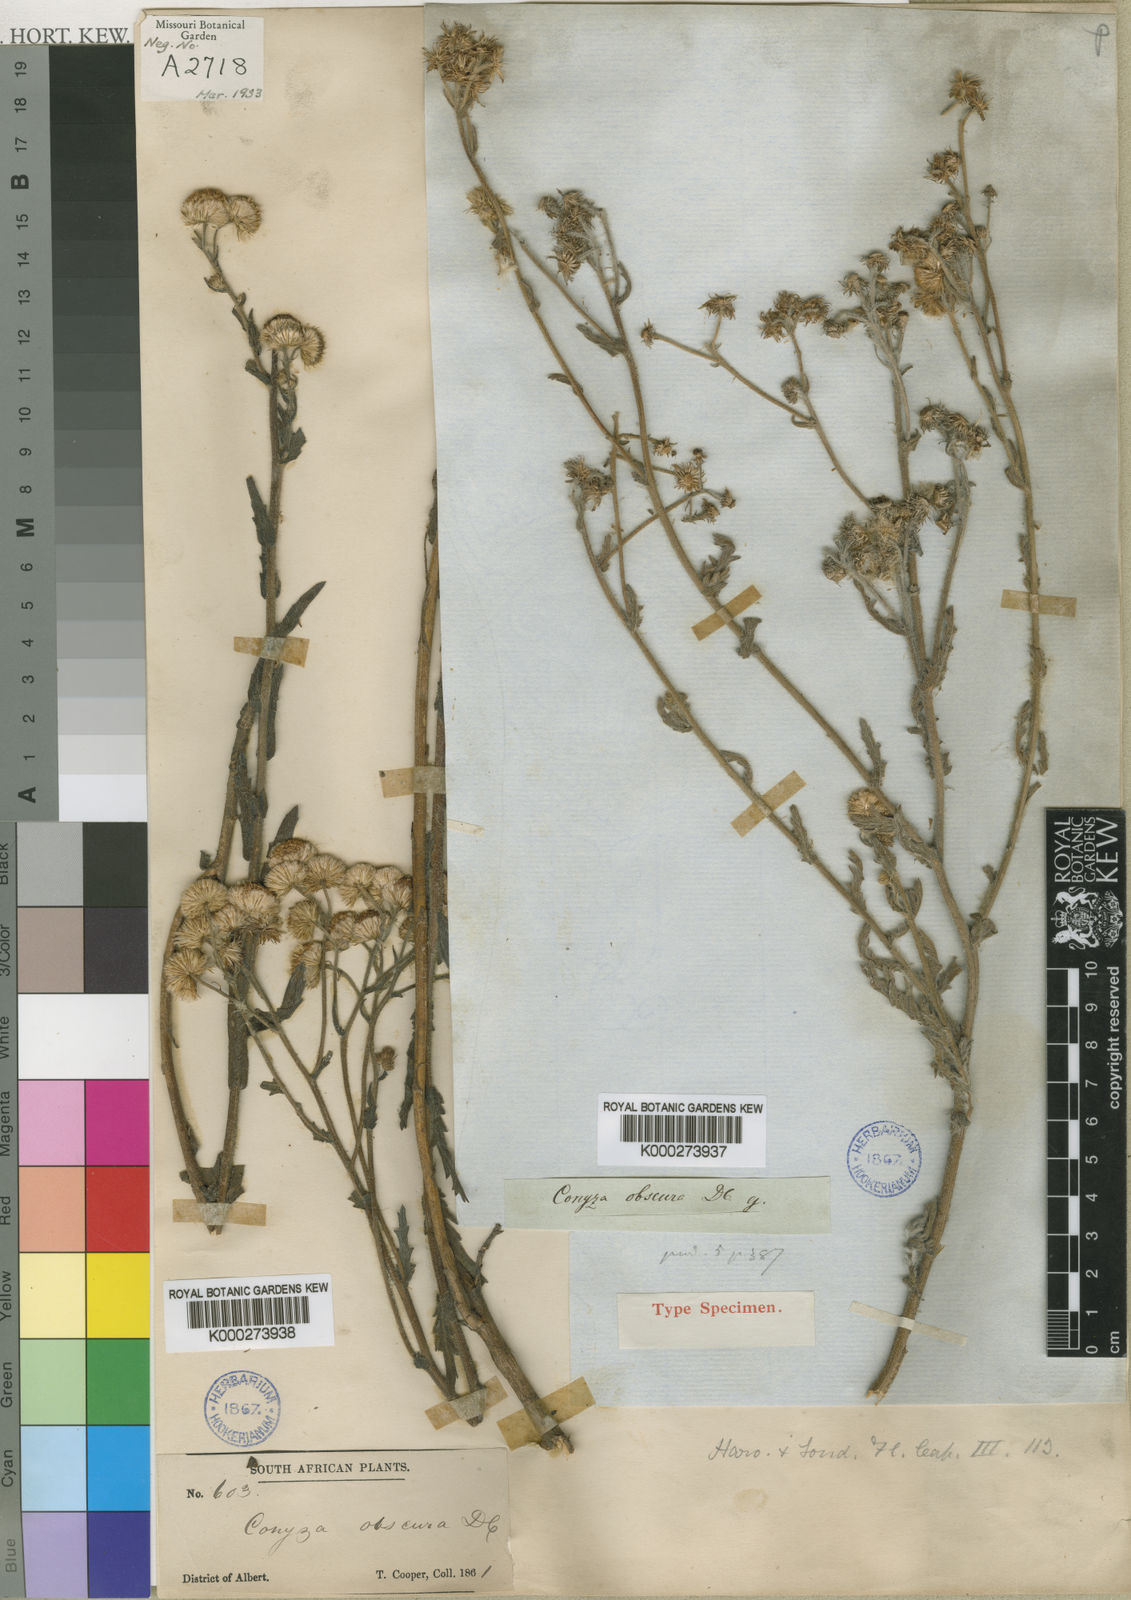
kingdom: Plantae
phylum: Tracheophyta
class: Magnoliopsida
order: Asterales
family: Asteraceae
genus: Nidorella
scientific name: Nidorella obscura
